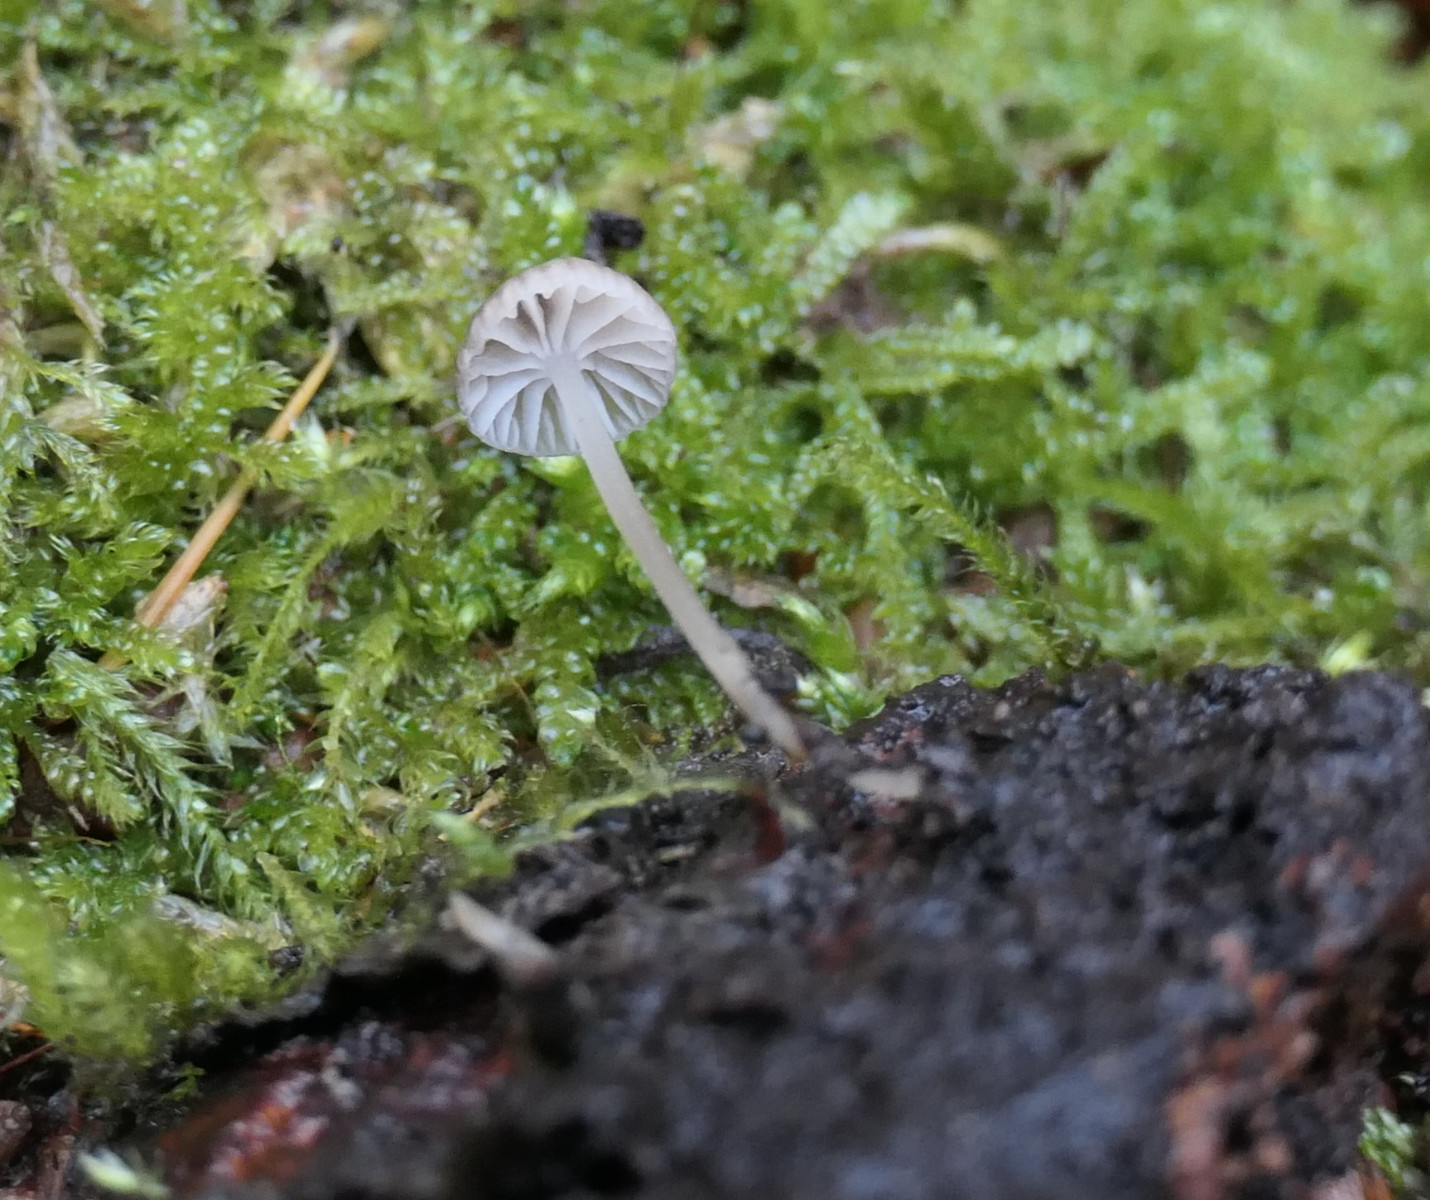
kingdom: Fungi
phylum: Basidiomycota
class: Agaricomycetes
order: Agaricales
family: Porotheleaceae
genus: Phloeomana
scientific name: Phloeomana speirea
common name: kvist-huesvamp
